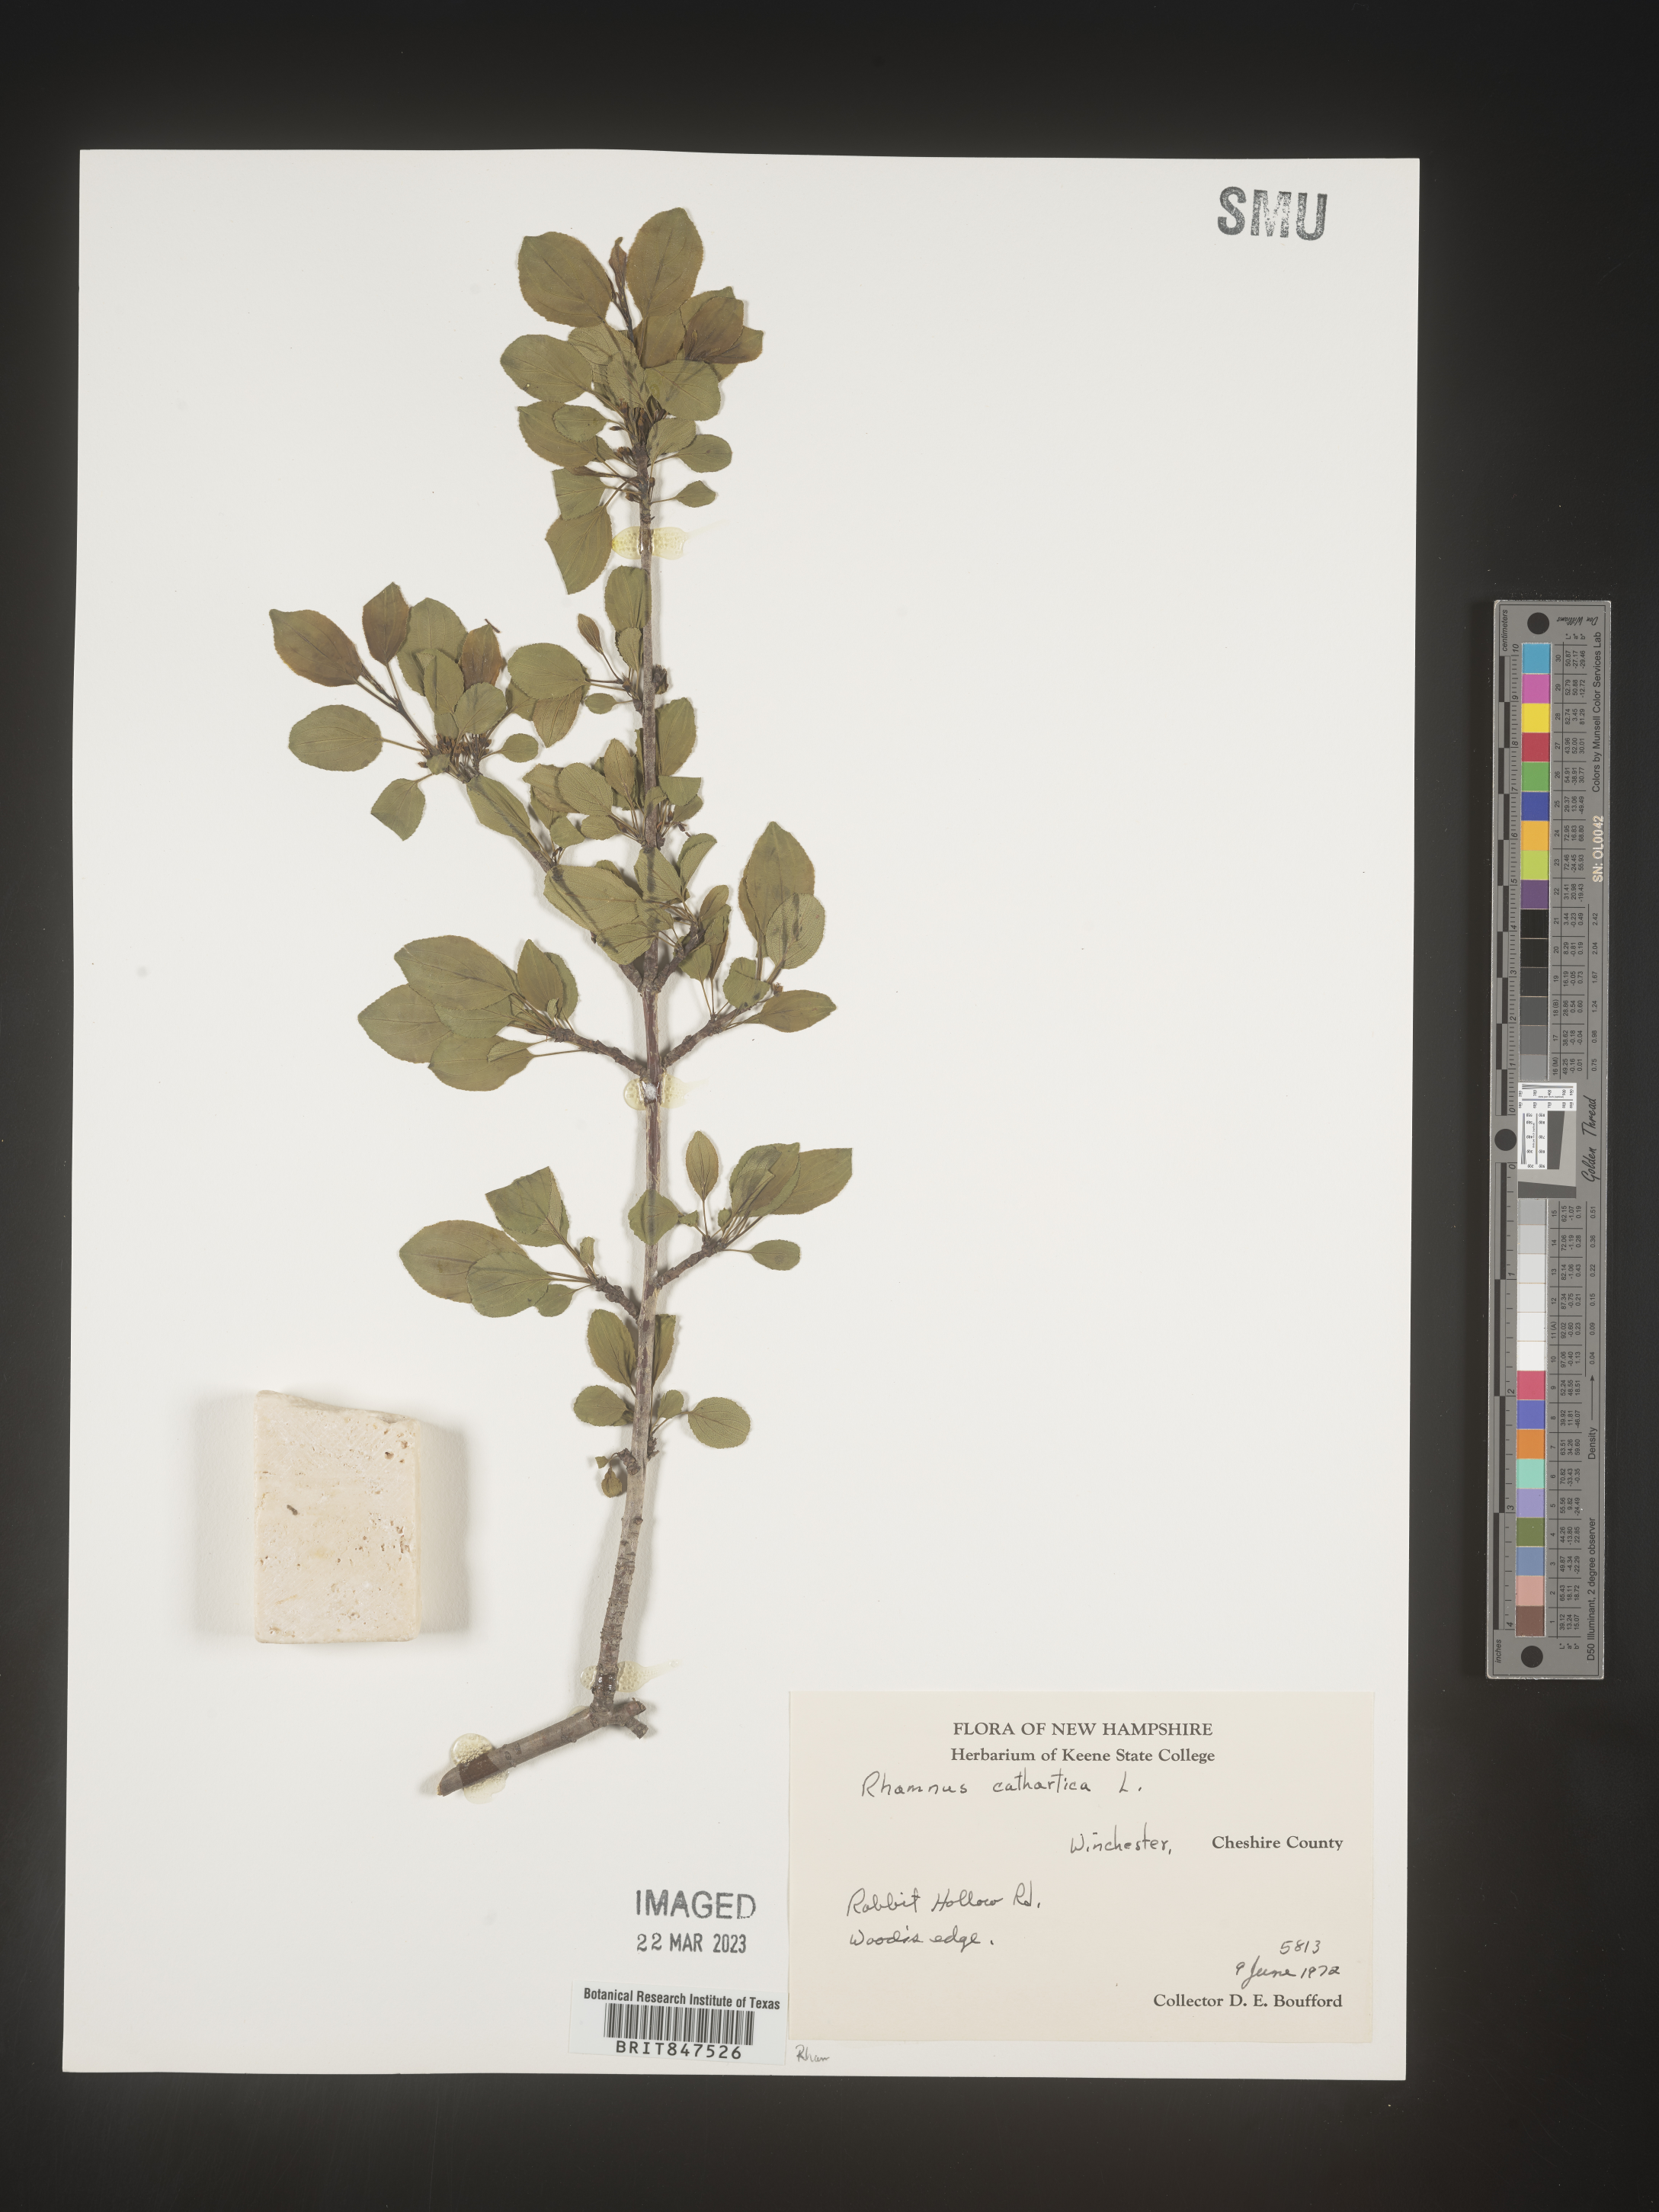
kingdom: Plantae
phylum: Tracheophyta
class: Magnoliopsida
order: Rosales
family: Rhamnaceae
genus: Rhamnus
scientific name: Rhamnus cathartica
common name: Common buckthorn
